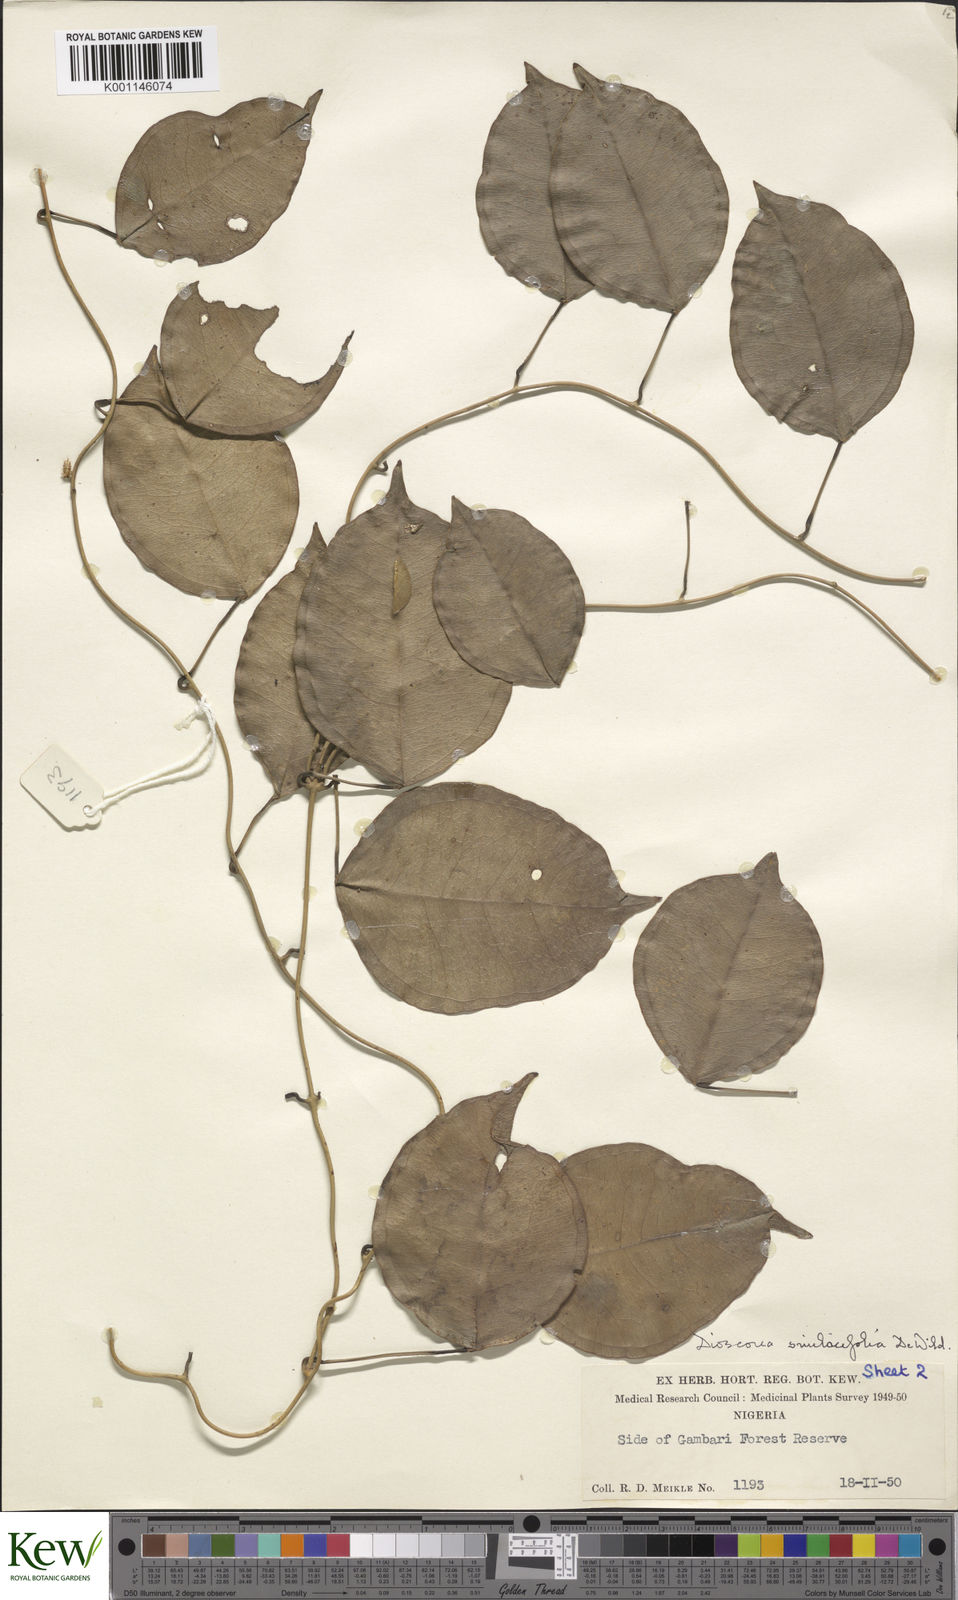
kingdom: Plantae
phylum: Tracheophyta
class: Liliopsida
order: Dioscoreales
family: Dioscoreaceae
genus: Dioscorea
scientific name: Dioscorea smilacifolia
